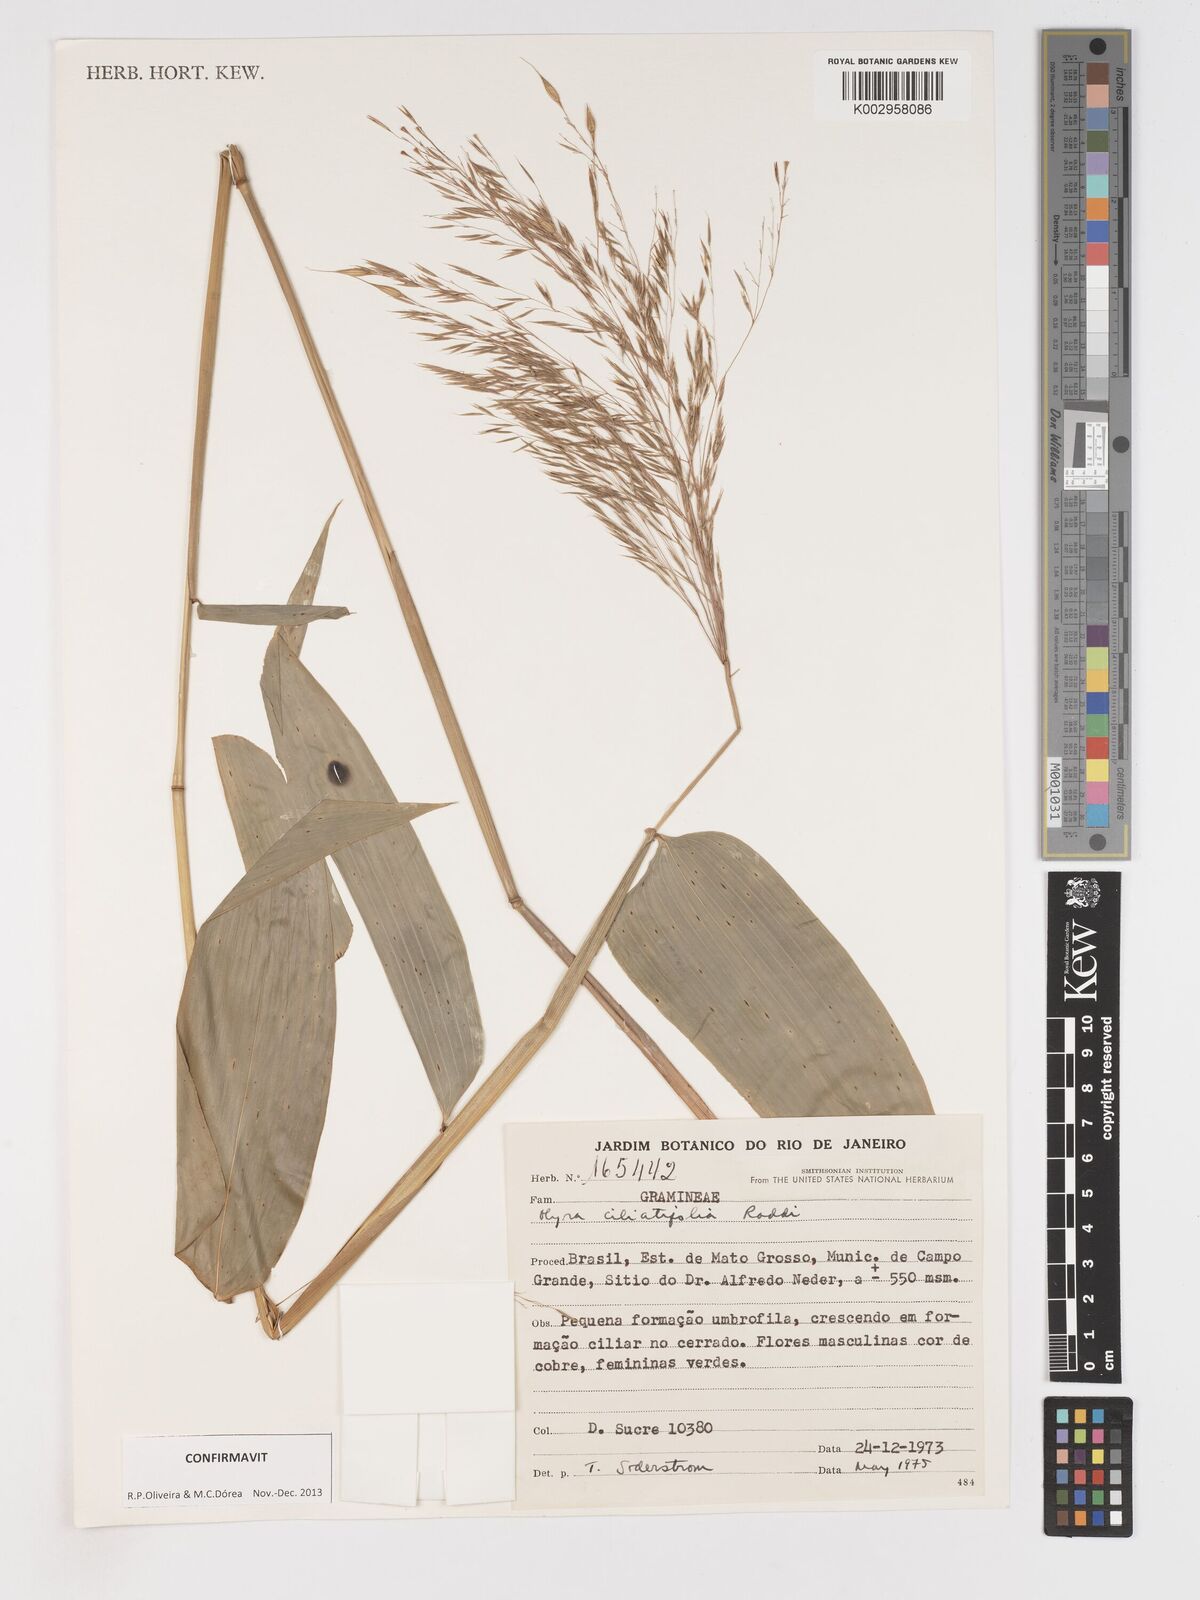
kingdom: Plantae
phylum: Tracheophyta
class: Liliopsida
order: Poales
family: Poaceae
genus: Olyra
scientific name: Olyra ciliatifolia
